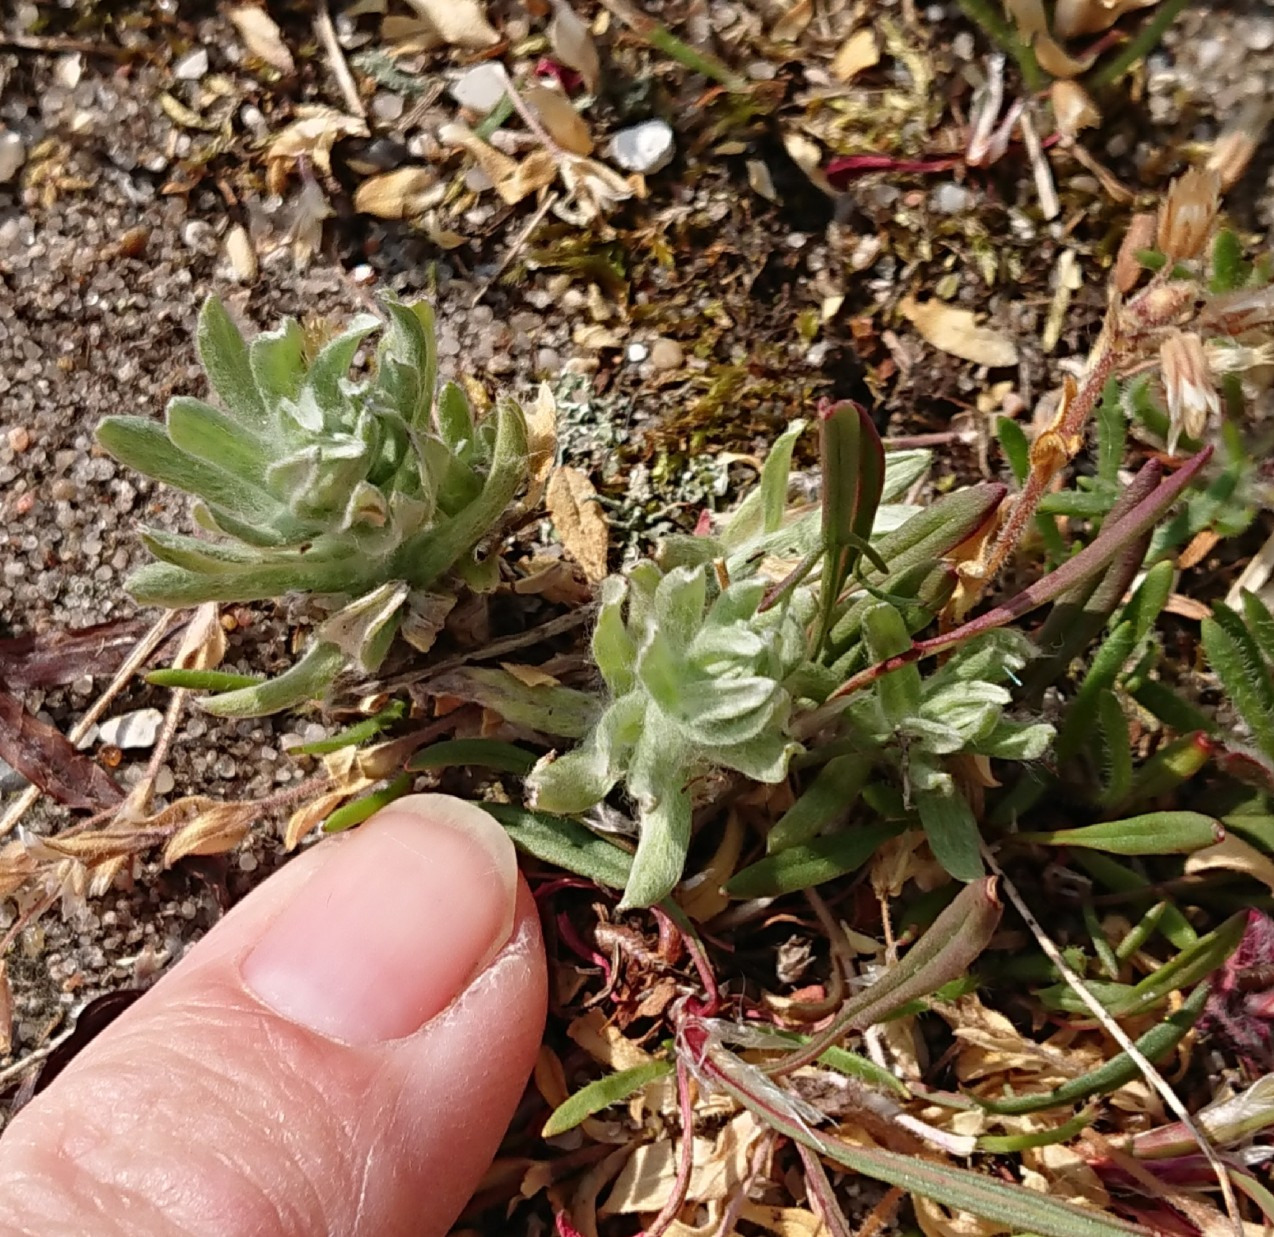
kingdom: Plantae
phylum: Tracheophyta
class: Magnoliopsida
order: Asterales
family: Asteraceae
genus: Helichrysum
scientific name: Helichrysum arenarium
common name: Gul evighedsblomst
